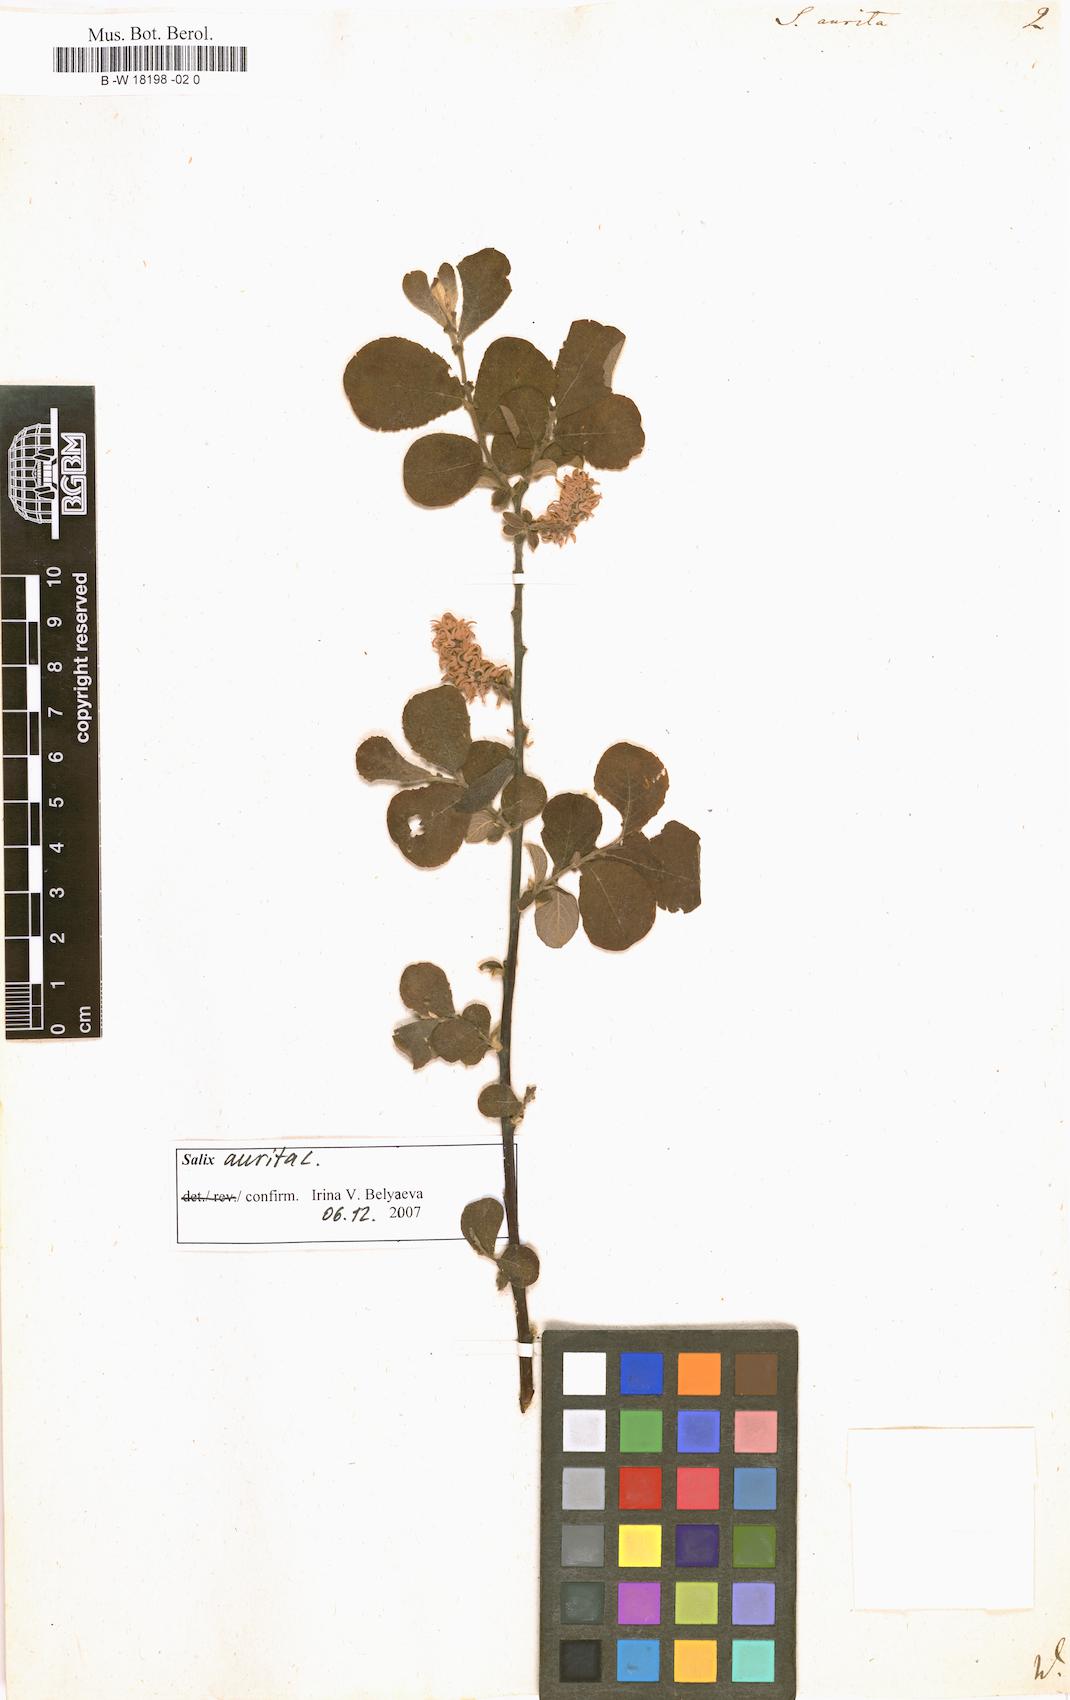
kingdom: Plantae
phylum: Tracheophyta
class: Magnoliopsida
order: Malpighiales
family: Salicaceae
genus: Salix
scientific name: Salix aurita
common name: Eared willow
